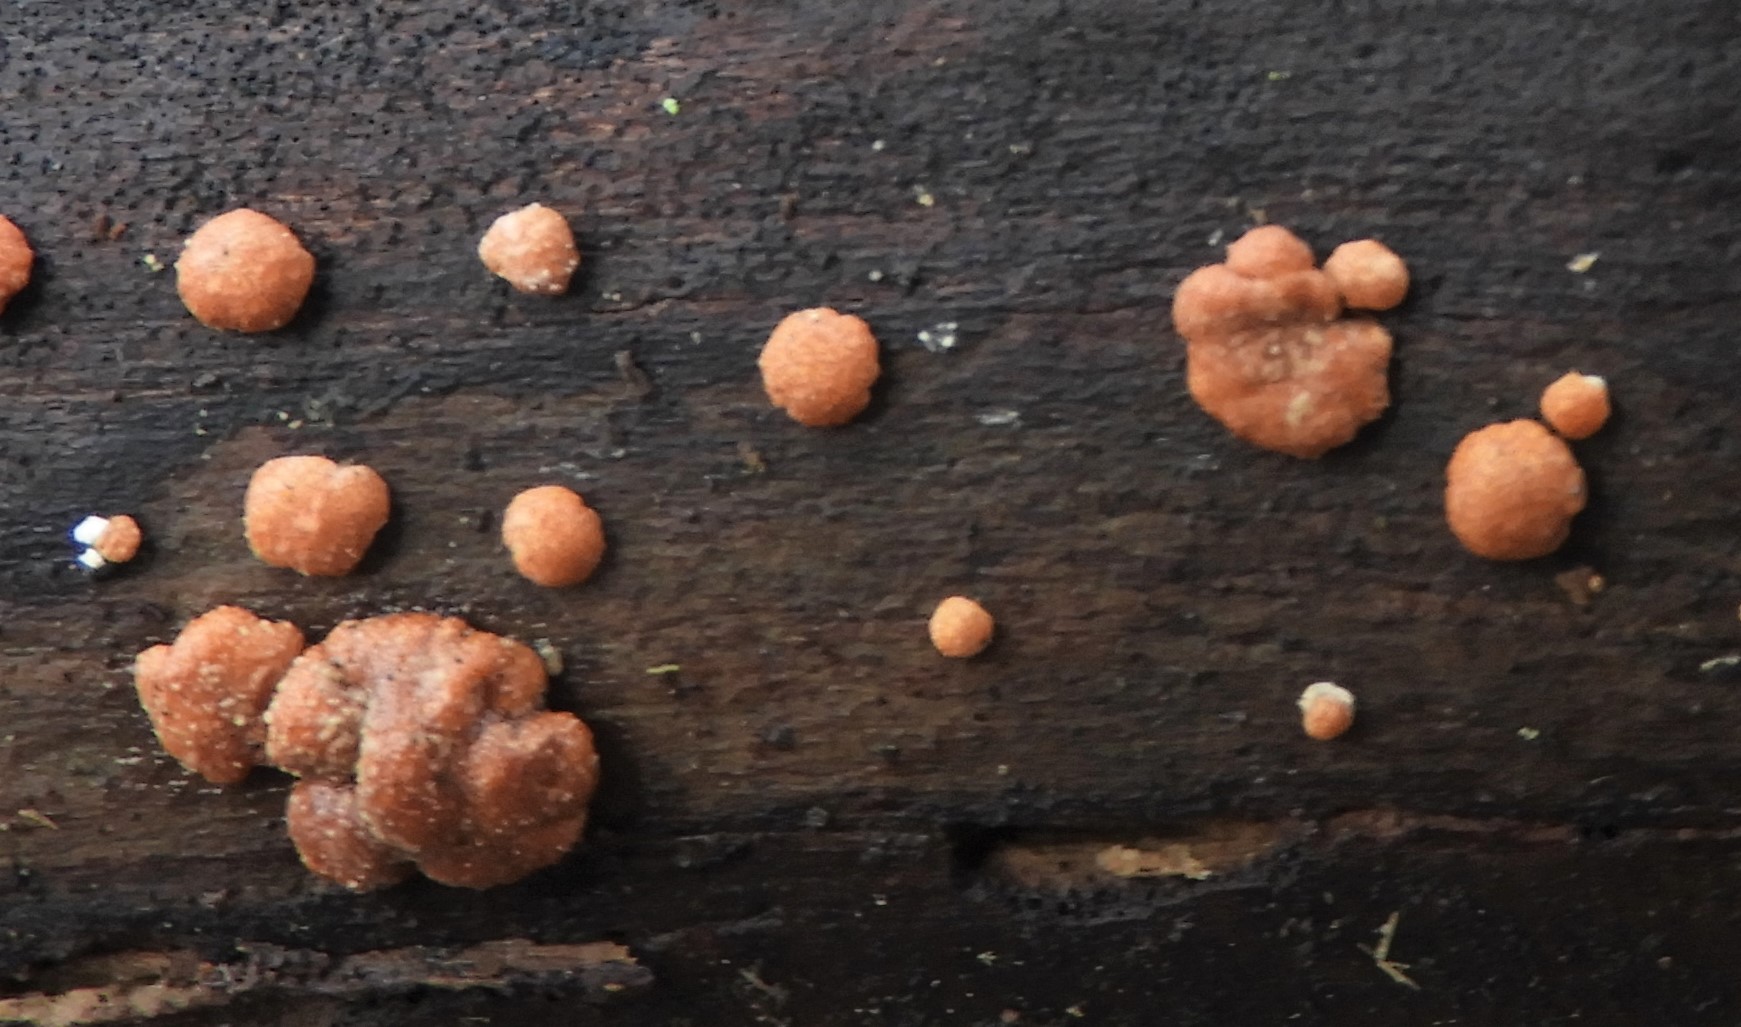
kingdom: Fungi
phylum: Ascomycota
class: Sordariomycetes
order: Hypocreales
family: Hypocreaceae
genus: Trichoderma
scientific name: Trichoderma europaeum
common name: rosabrun kødkerne
